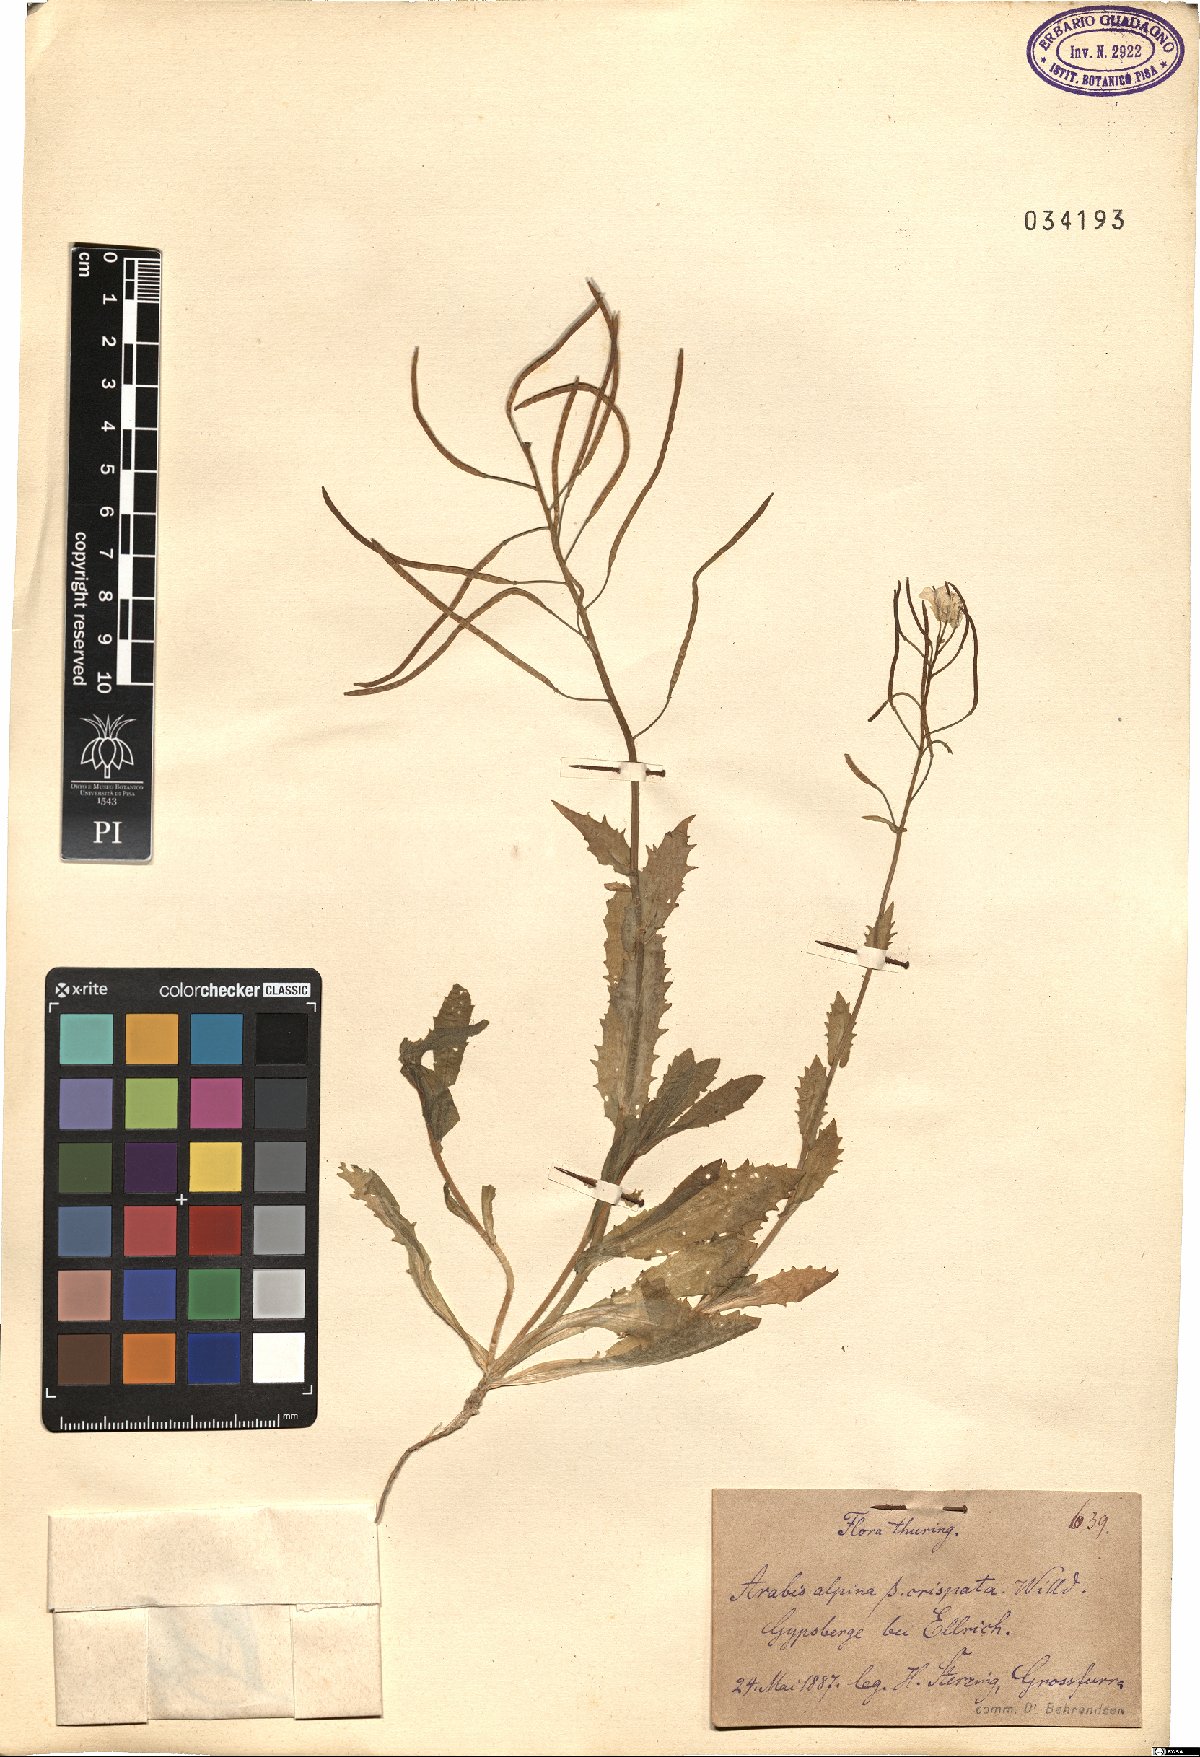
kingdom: Plantae
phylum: Tracheophyta
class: Magnoliopsida
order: Brassicales
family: Brassicaceae
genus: Arabis
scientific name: Arabis alpina
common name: Alpine rock-cress
